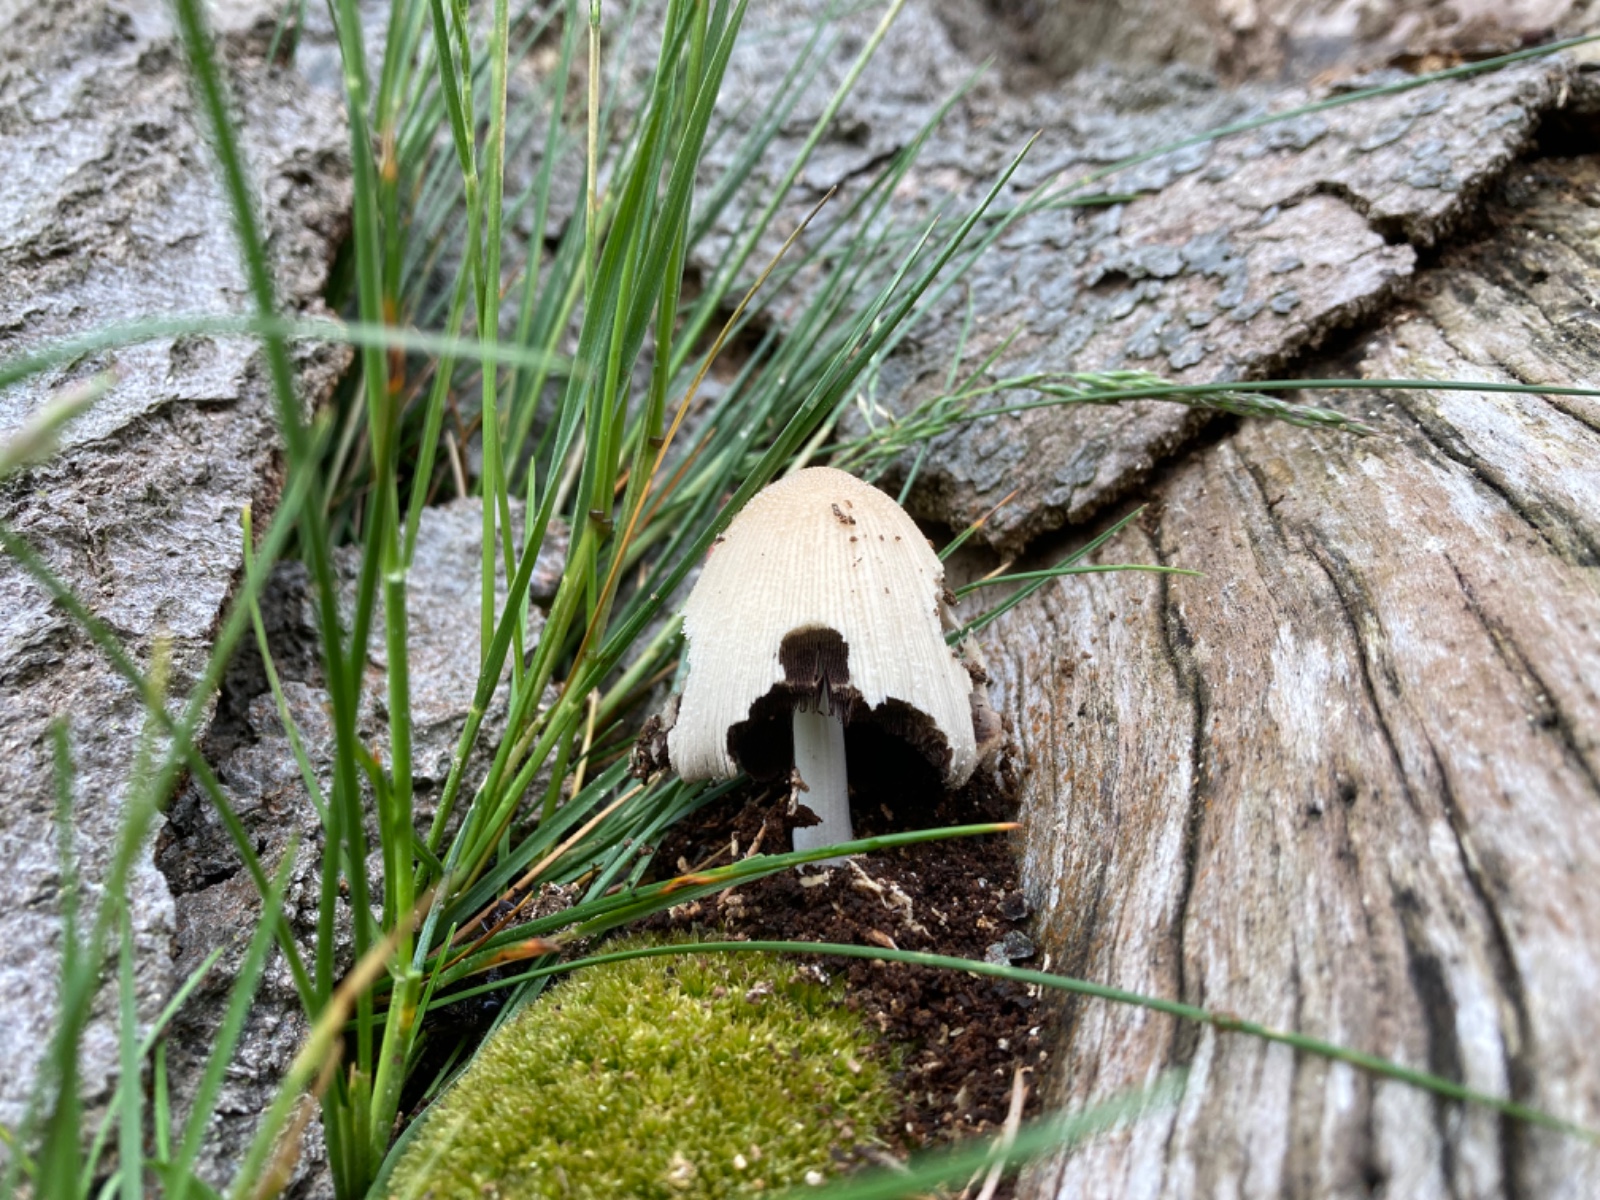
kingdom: Fungi
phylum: Basidiomycota
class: Agaricomycetes
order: Agaricales
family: Psathyrellaceae
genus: Coprinellus
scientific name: Coprinellus domesticus
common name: hus-blækhat
